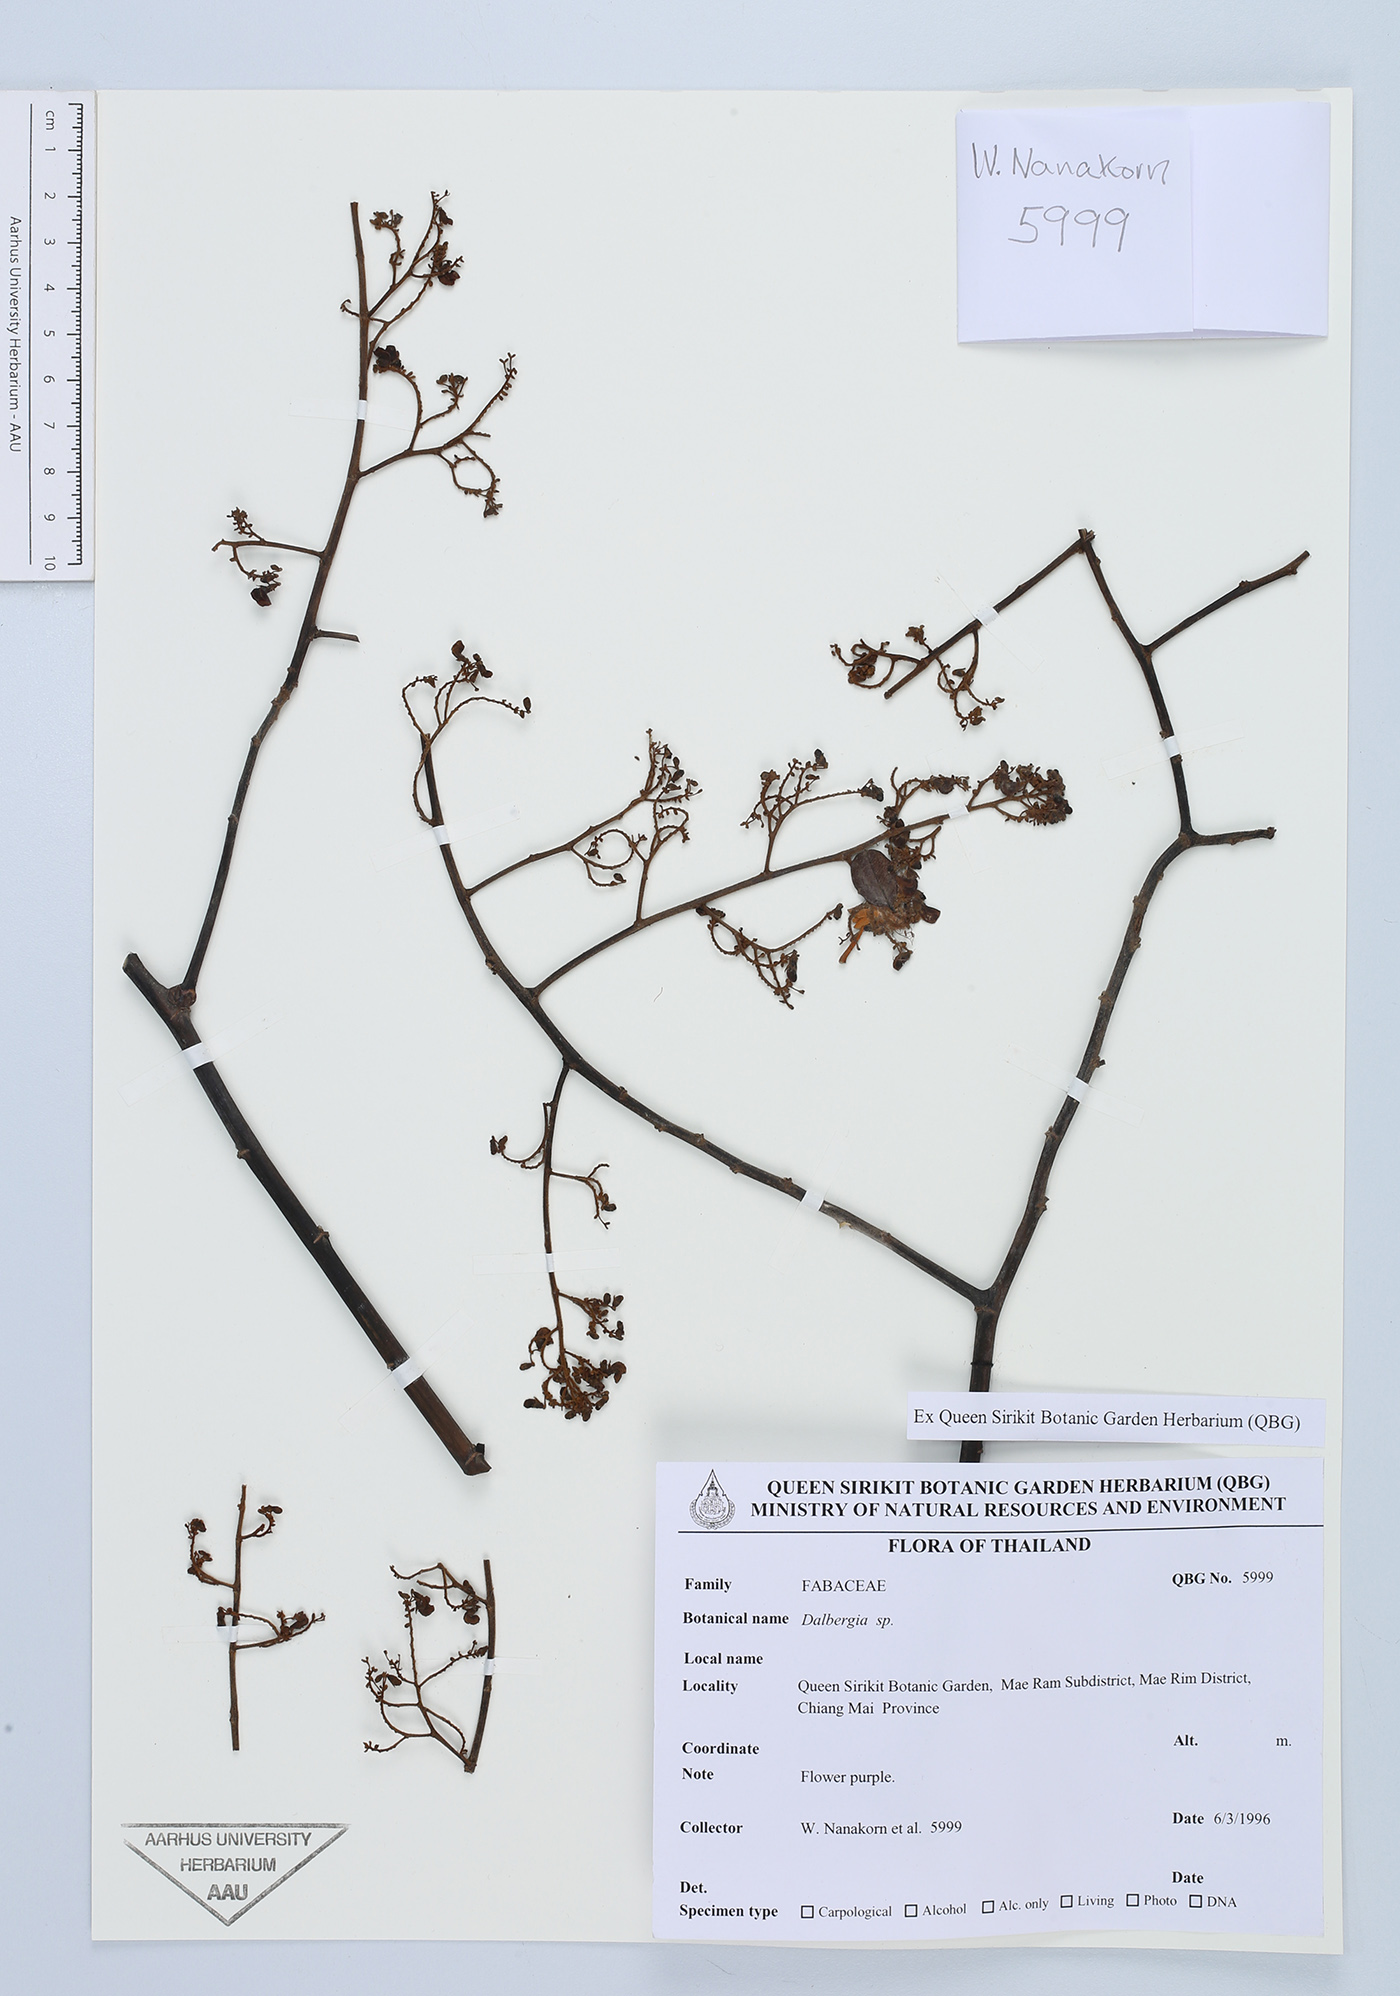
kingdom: Plantae
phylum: Tracheophyta
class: Magnoliopsida
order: Fabales
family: Fabaceae
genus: Dalbergia
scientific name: Dalbergia
